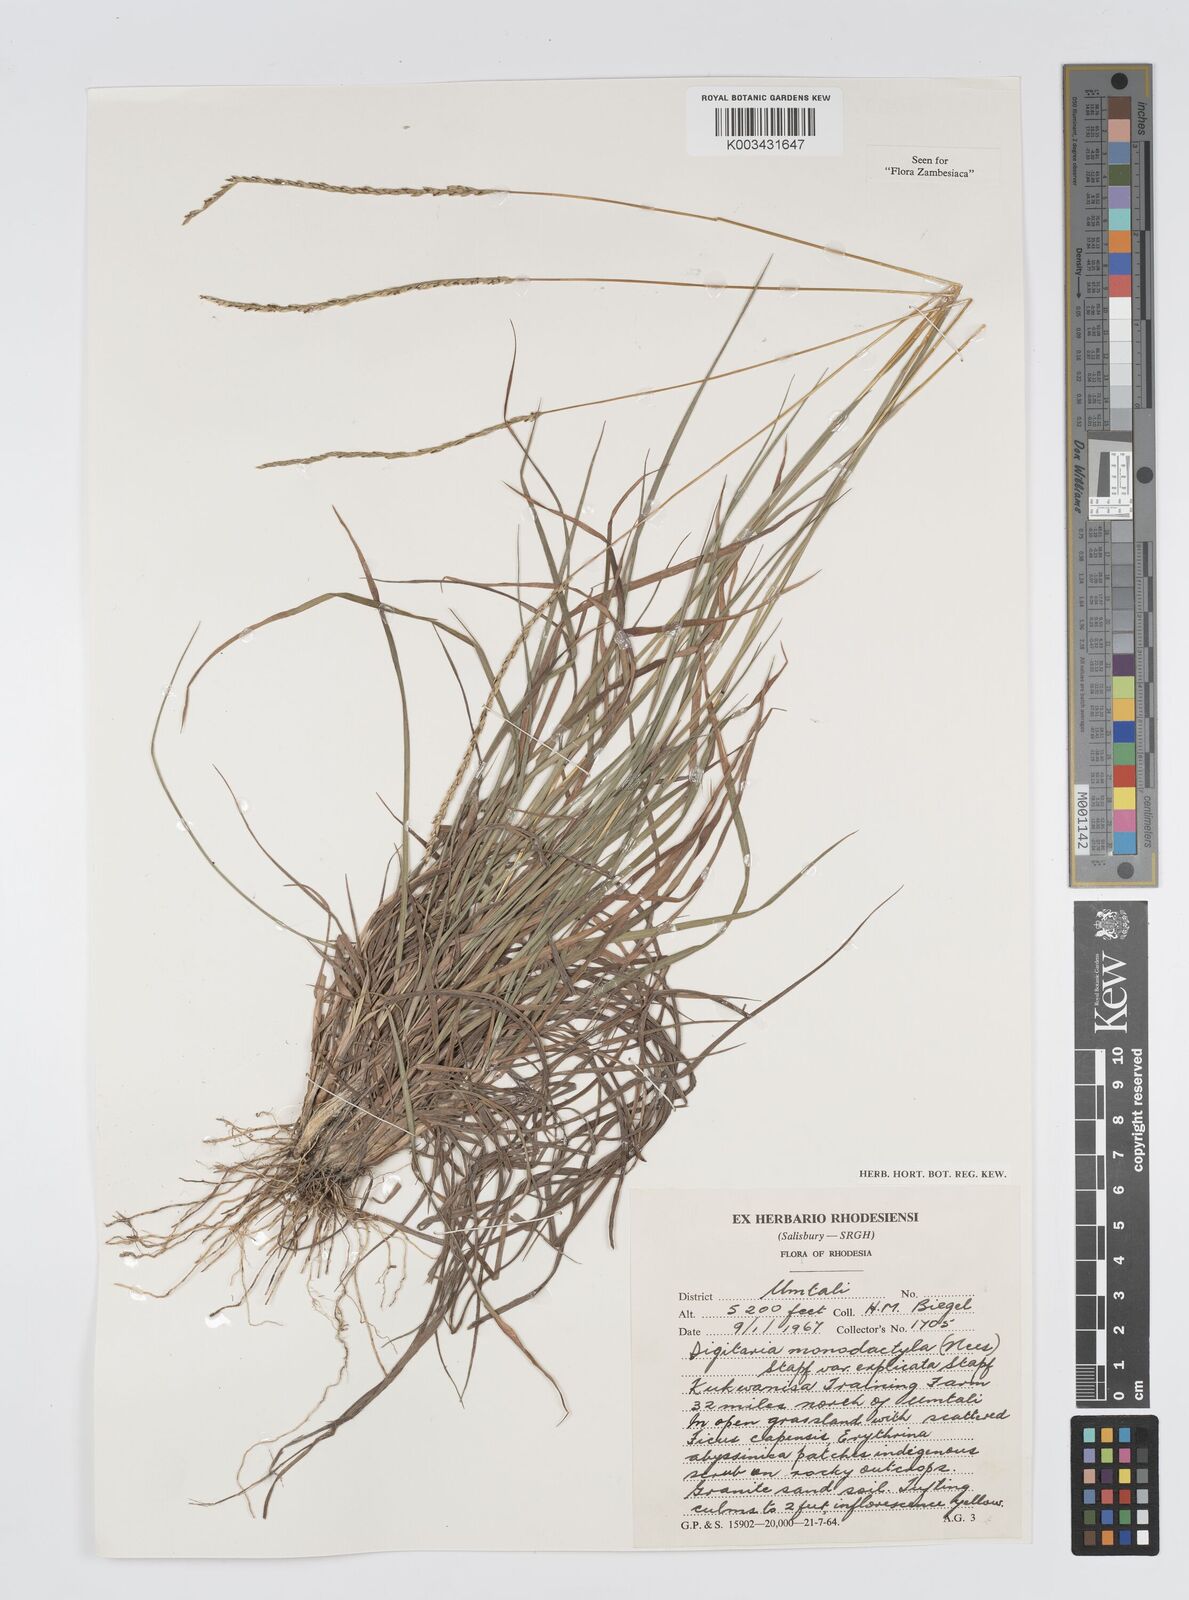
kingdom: Plantae
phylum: Tracheophyta
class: Liliopsida
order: Poales
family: Poaceae
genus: Digitaria
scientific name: Digitaria monodactyla
